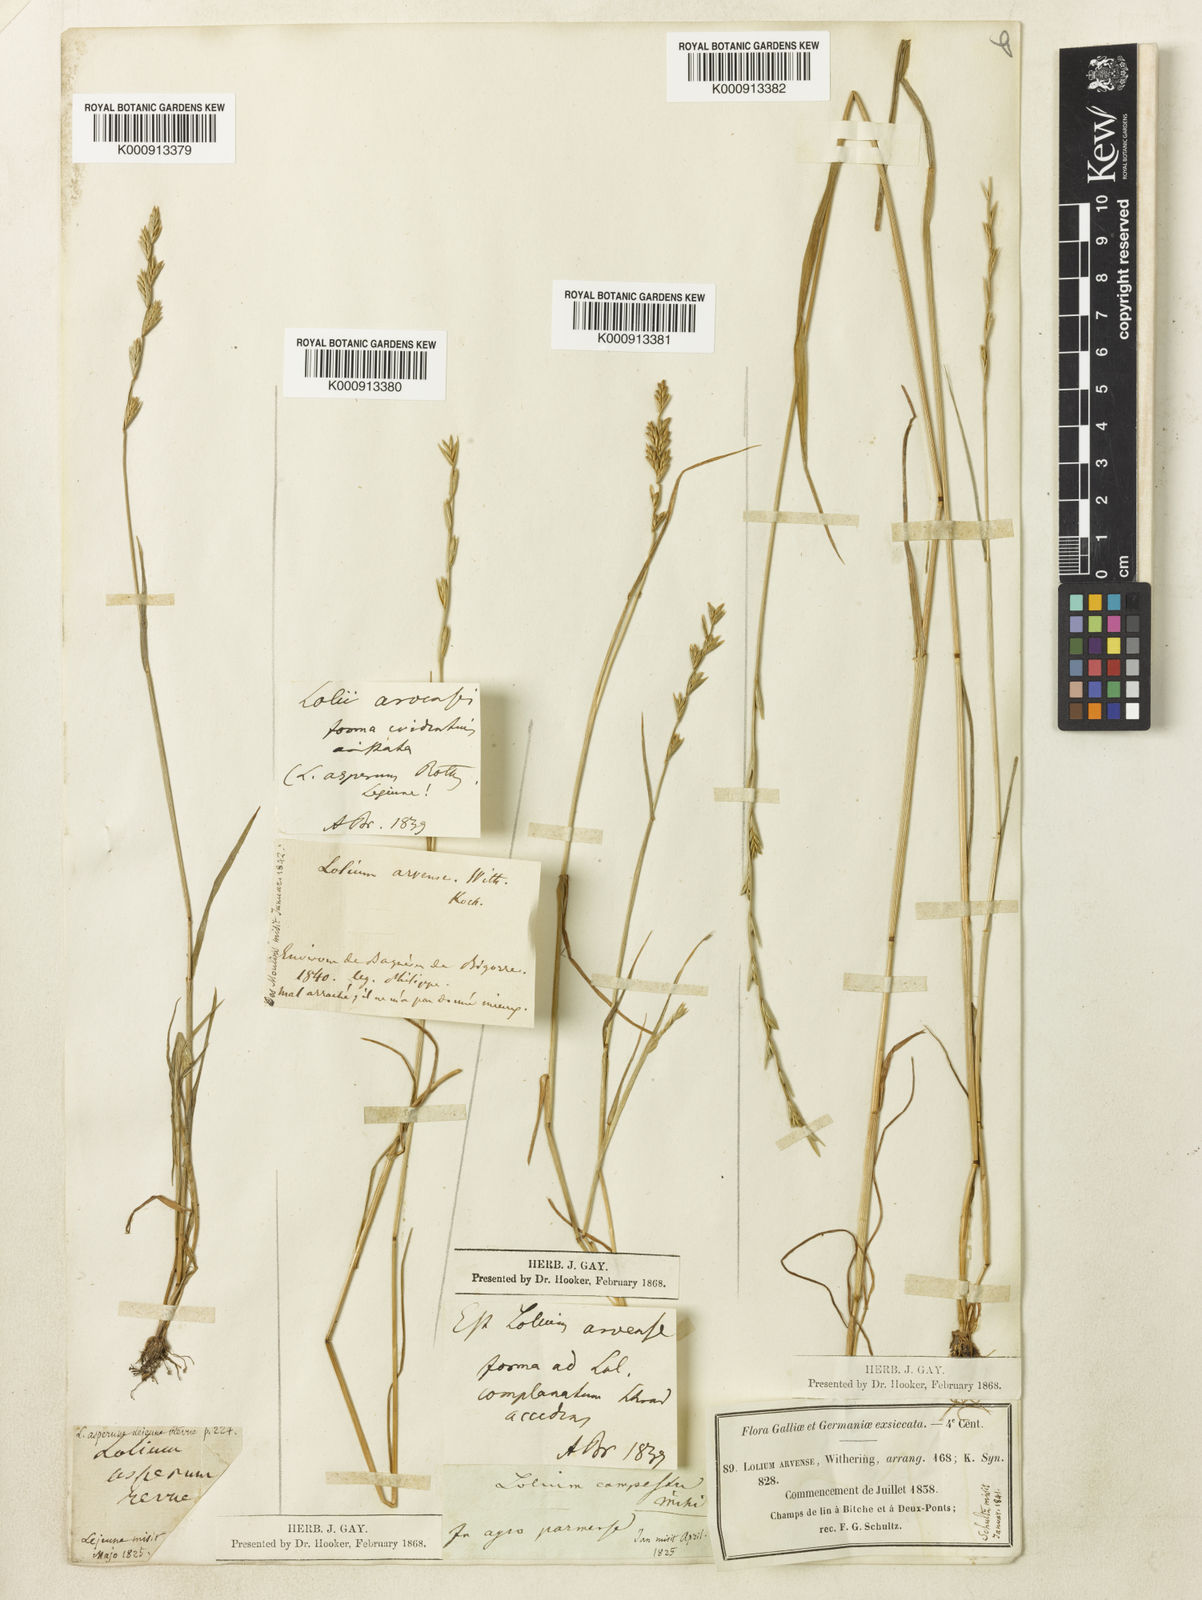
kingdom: Plantae
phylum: Tracheophyta
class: Liliopsida
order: Poales
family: Poaceae
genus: Lolium
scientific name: Lolium remotum
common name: Flaxfield rye-grass
